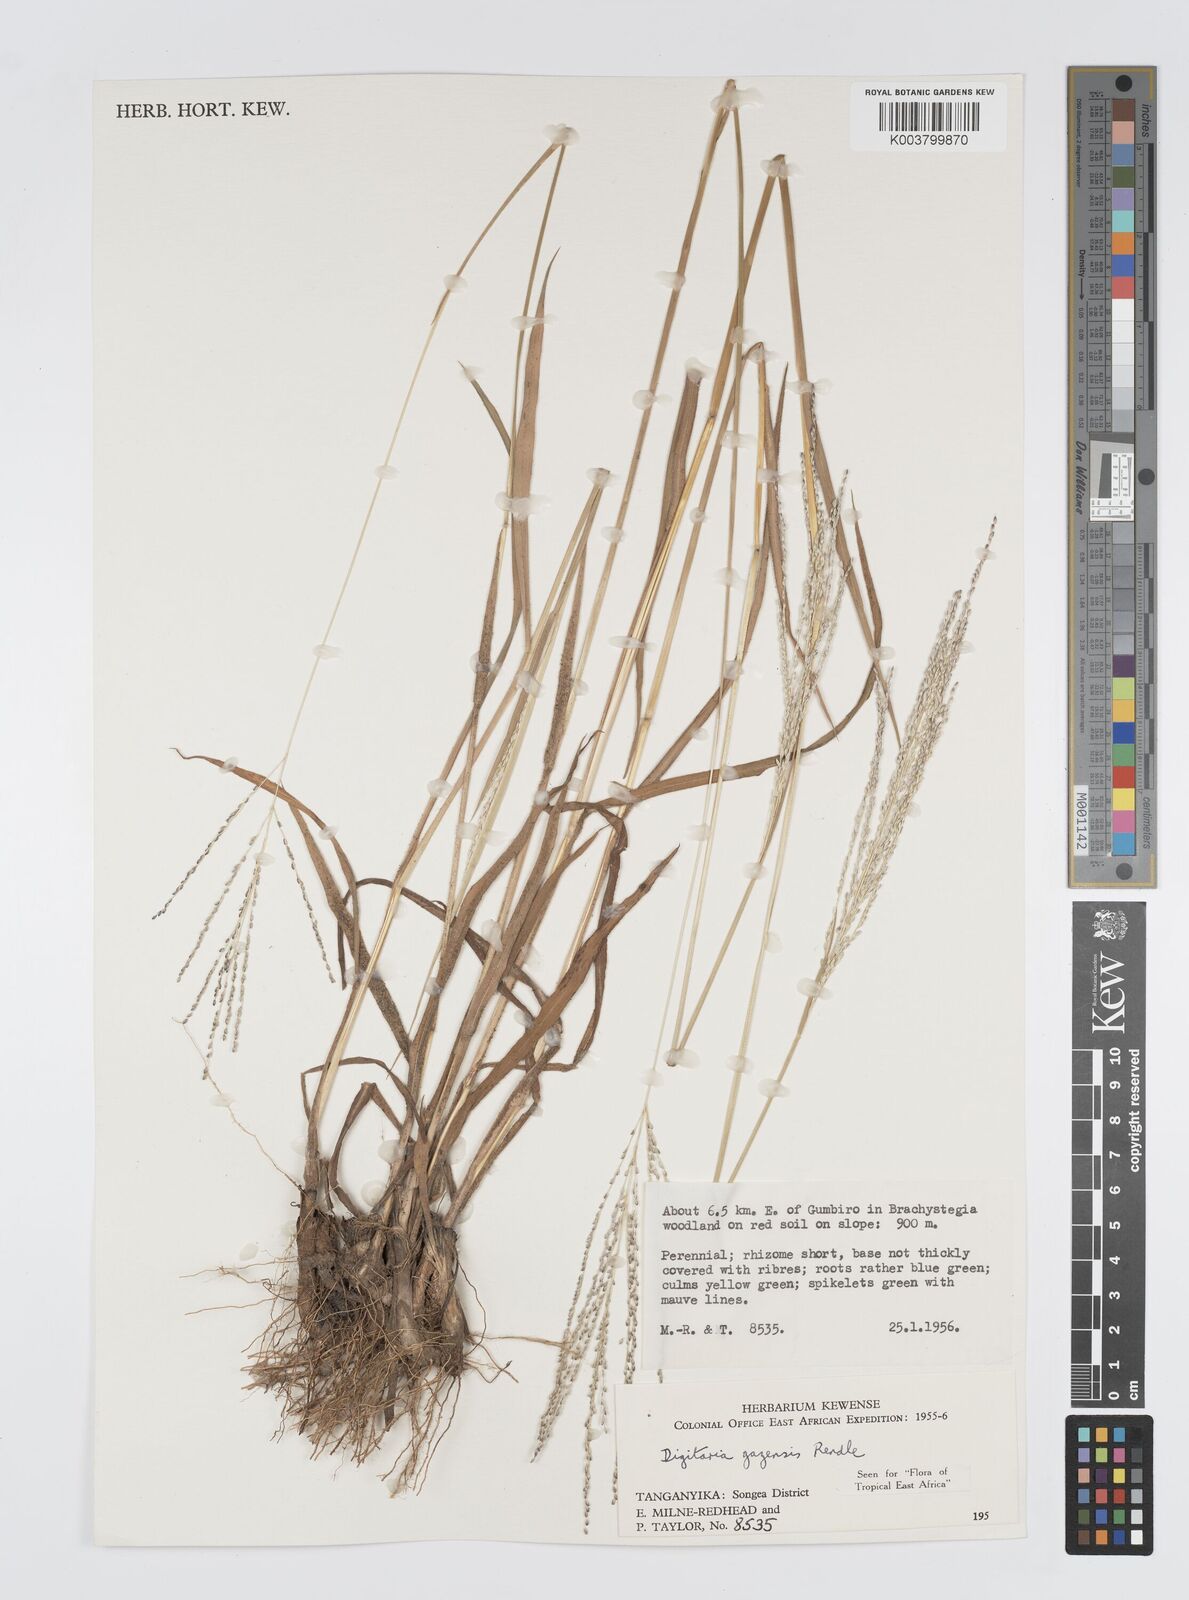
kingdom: Plantae
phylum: Tracheophyta
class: Liliopsida
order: Poales
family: Poaceae
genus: Digitaria
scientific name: Digitaria gazensis
